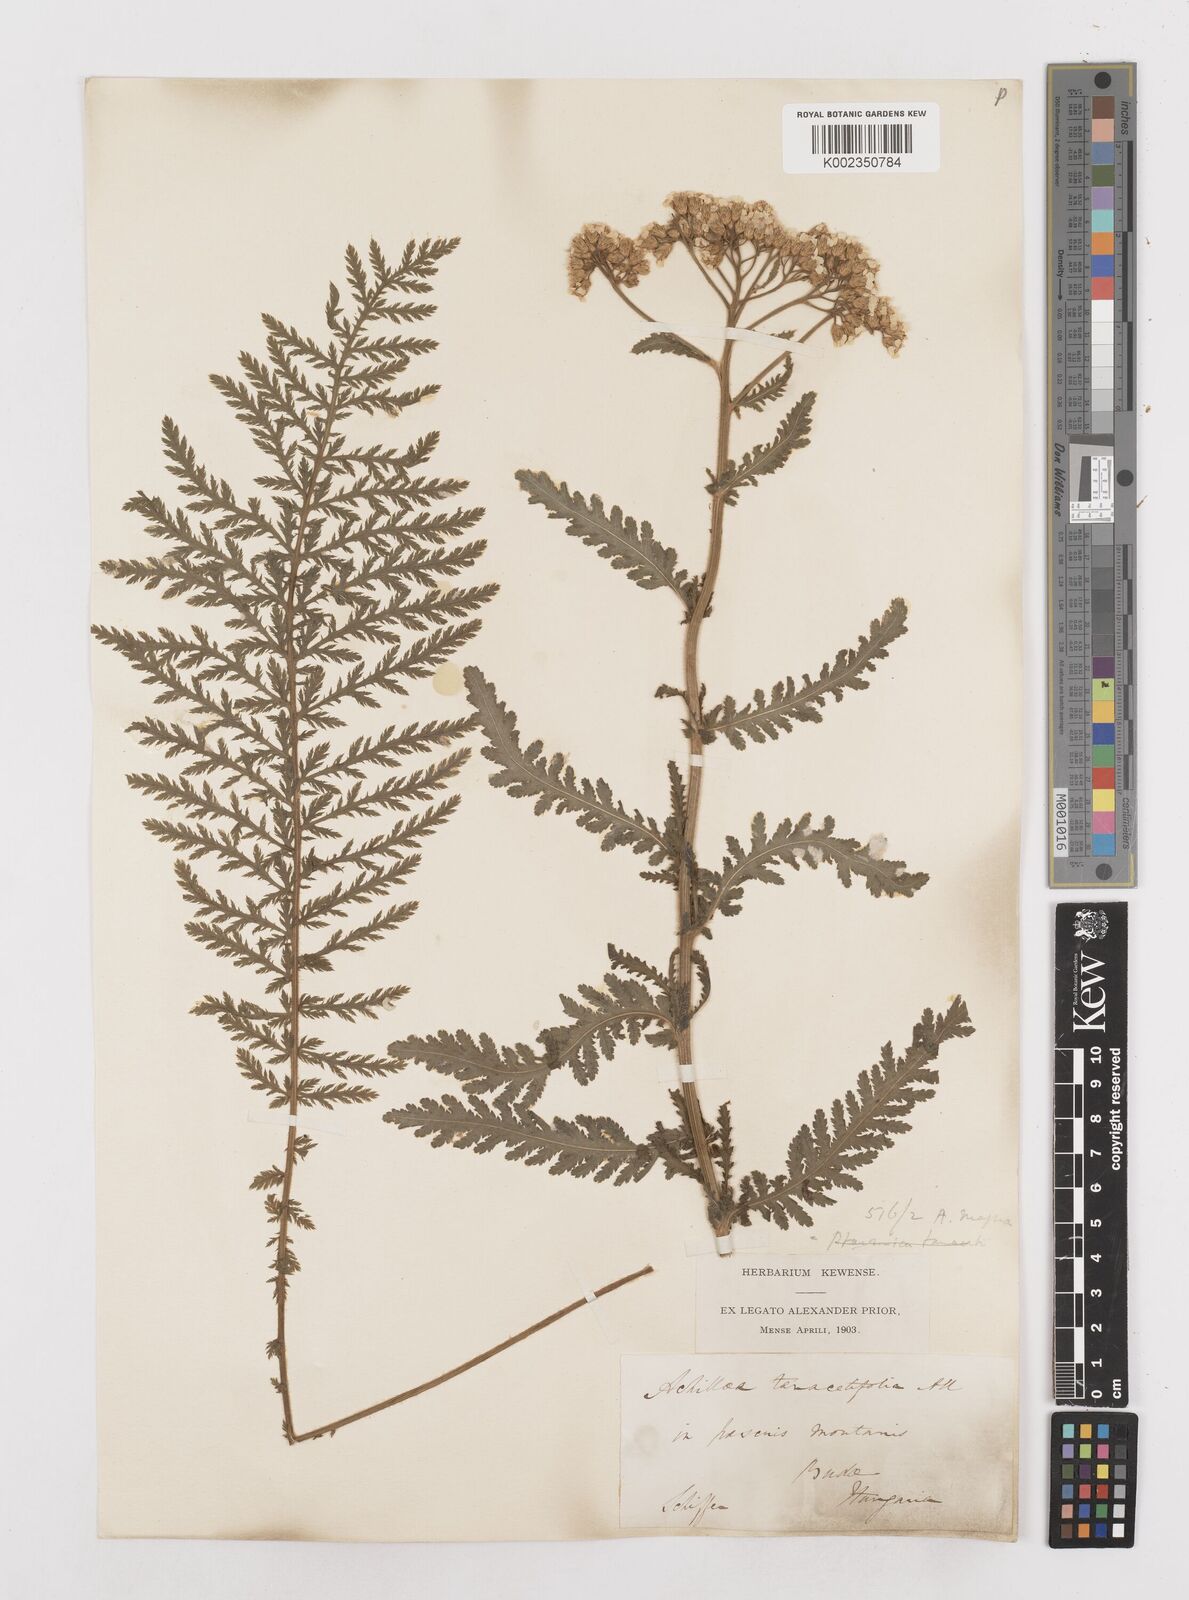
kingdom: Plantae
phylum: Tracheophyta
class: Magnoliopsida
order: Asterales
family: Asteraceae
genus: Achillea
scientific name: Achillea distans
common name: Tall yarrow
